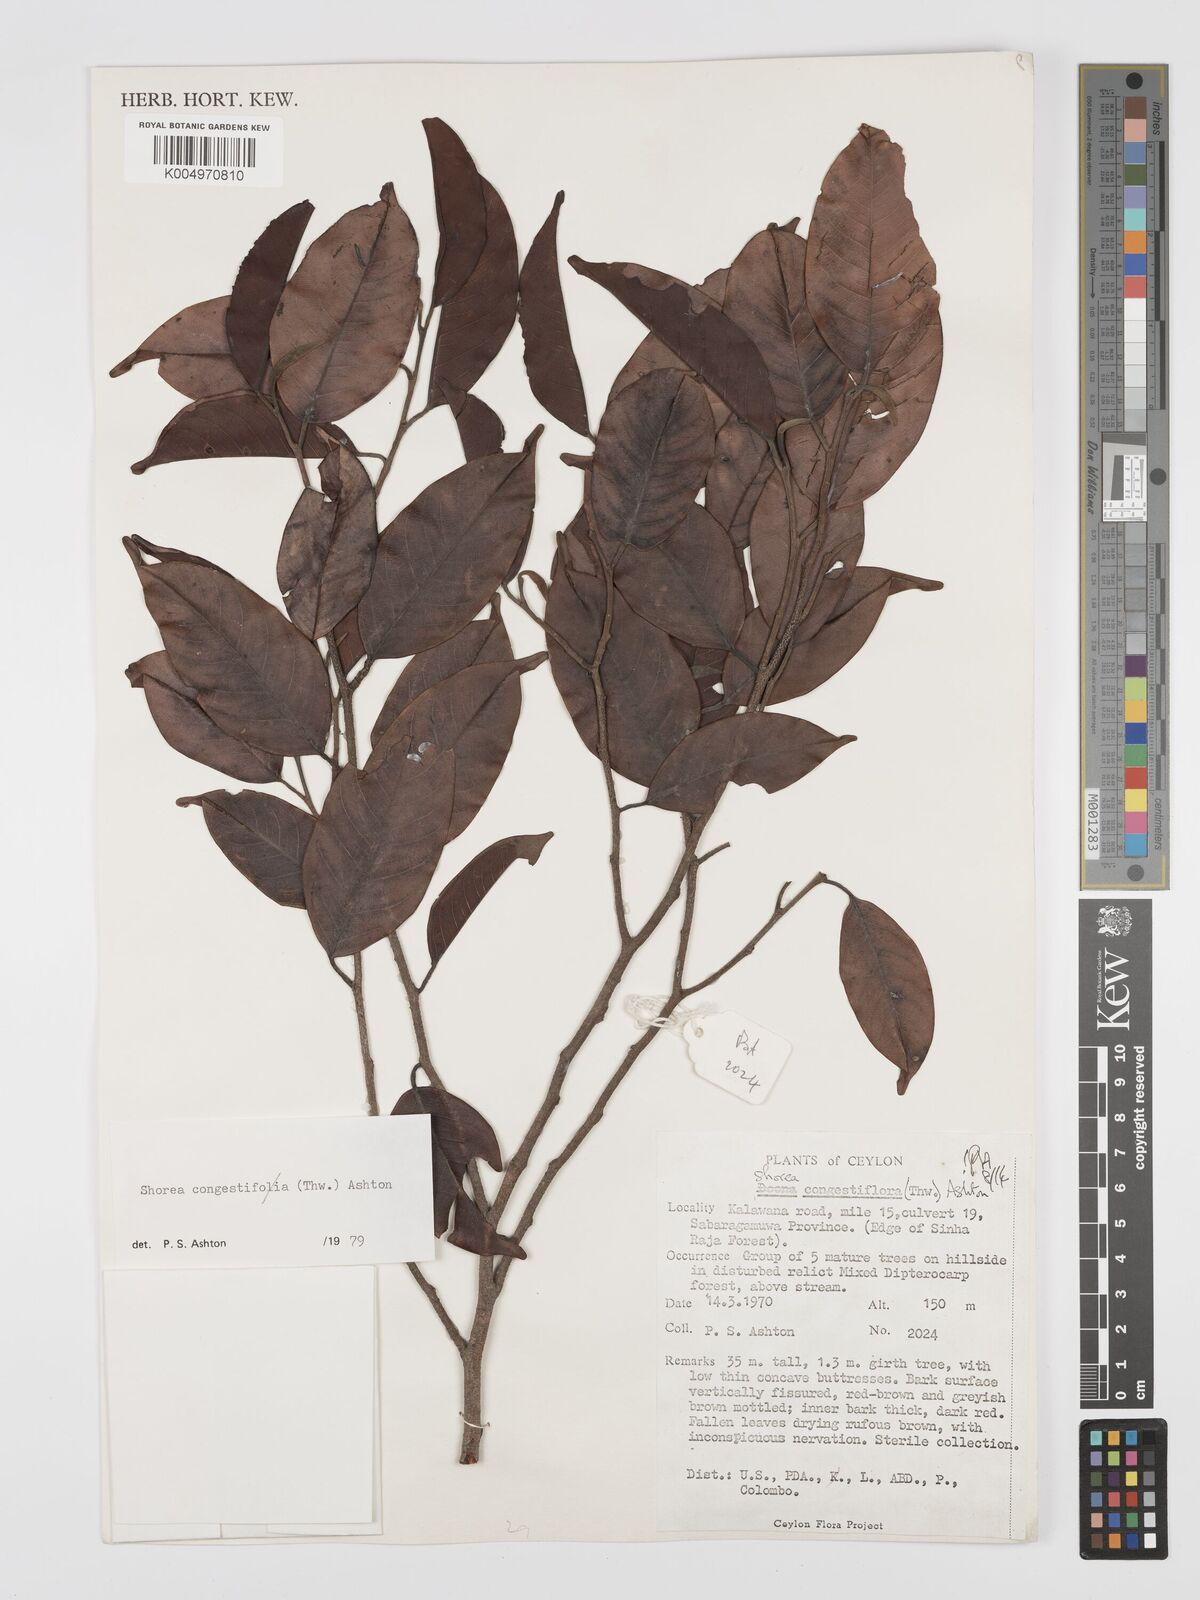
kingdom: Plantae
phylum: Tracheophyta
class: Magnoliopsida
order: Malvales
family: Dipterocarpaceae
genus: Doona
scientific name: Doona congestiflora
